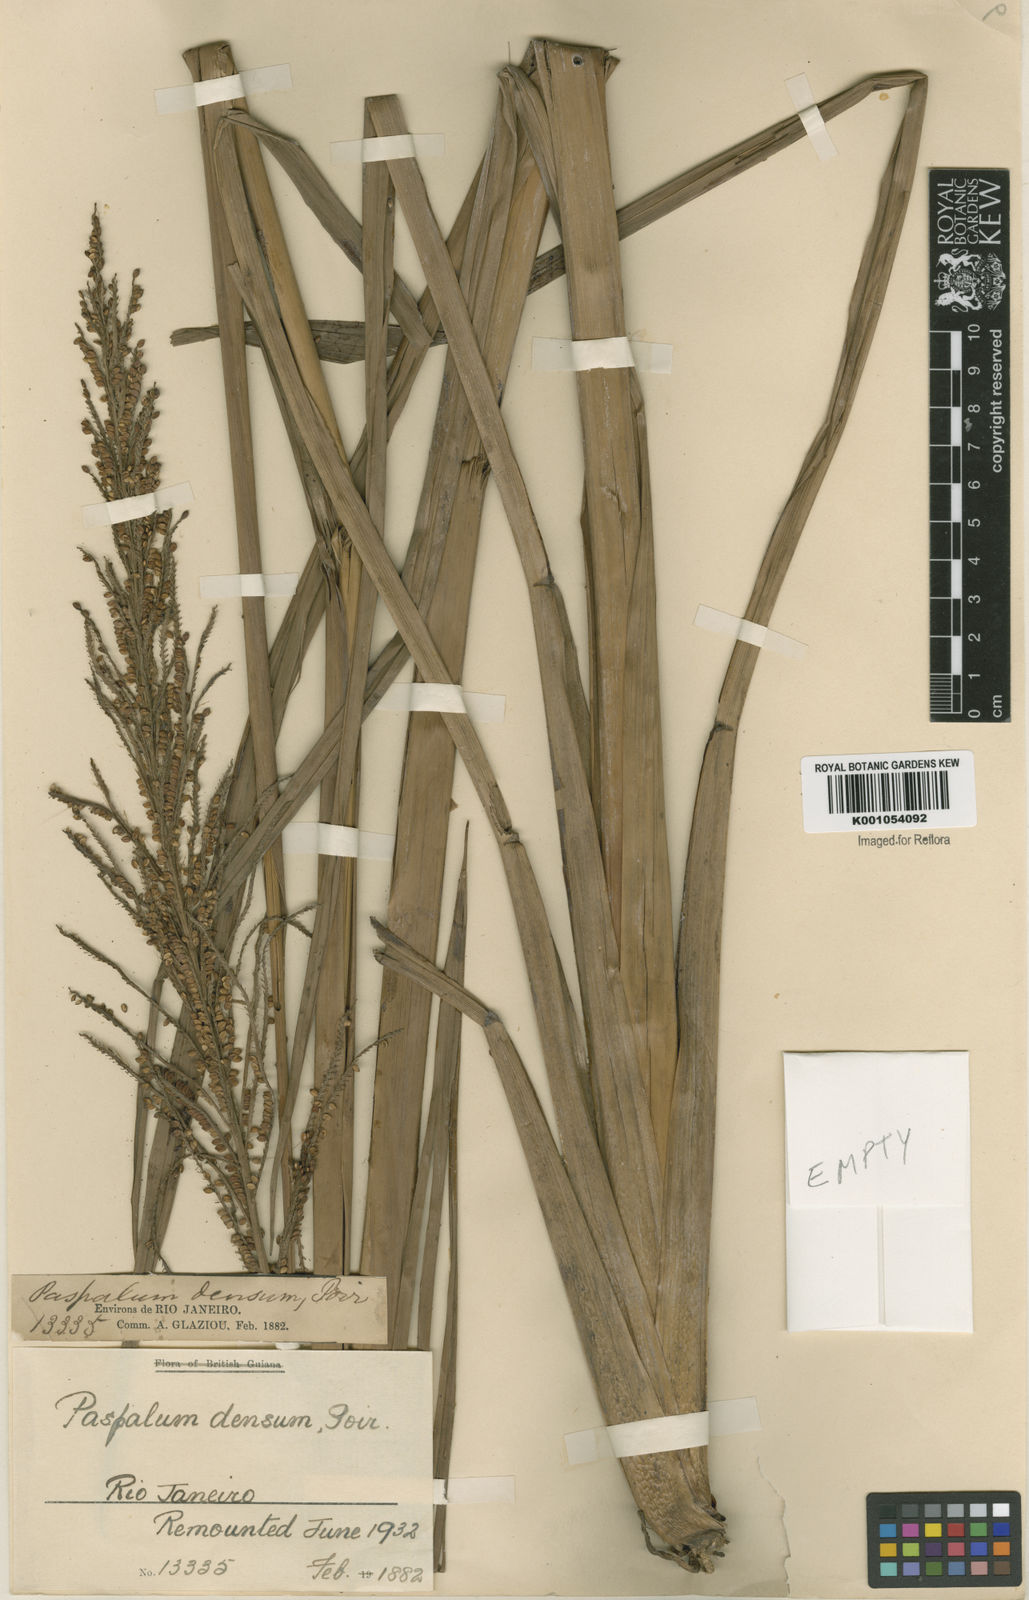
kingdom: Plantae
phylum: Tracheophyta
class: Liliopsida
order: Poales
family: Poaceae
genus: Paspalum
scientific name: Paspalum densum
